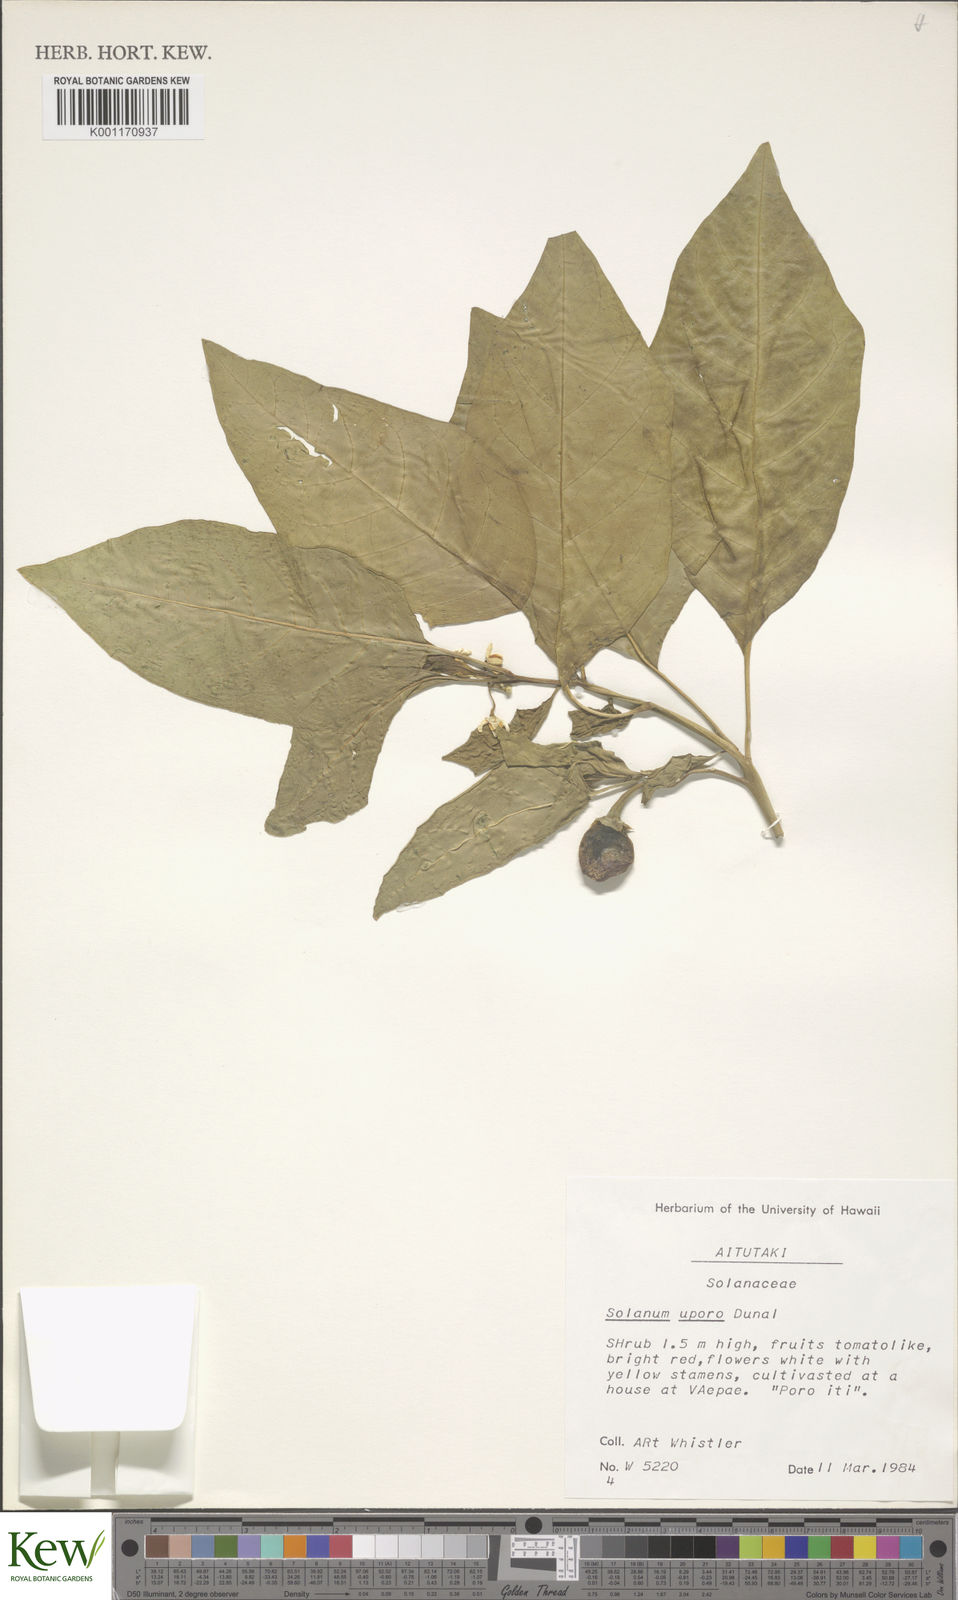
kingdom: Plantae
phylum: Tracheophyta
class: Magnoliopsida
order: Solanales
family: Solanaceae
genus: Solanum
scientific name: Solanum
